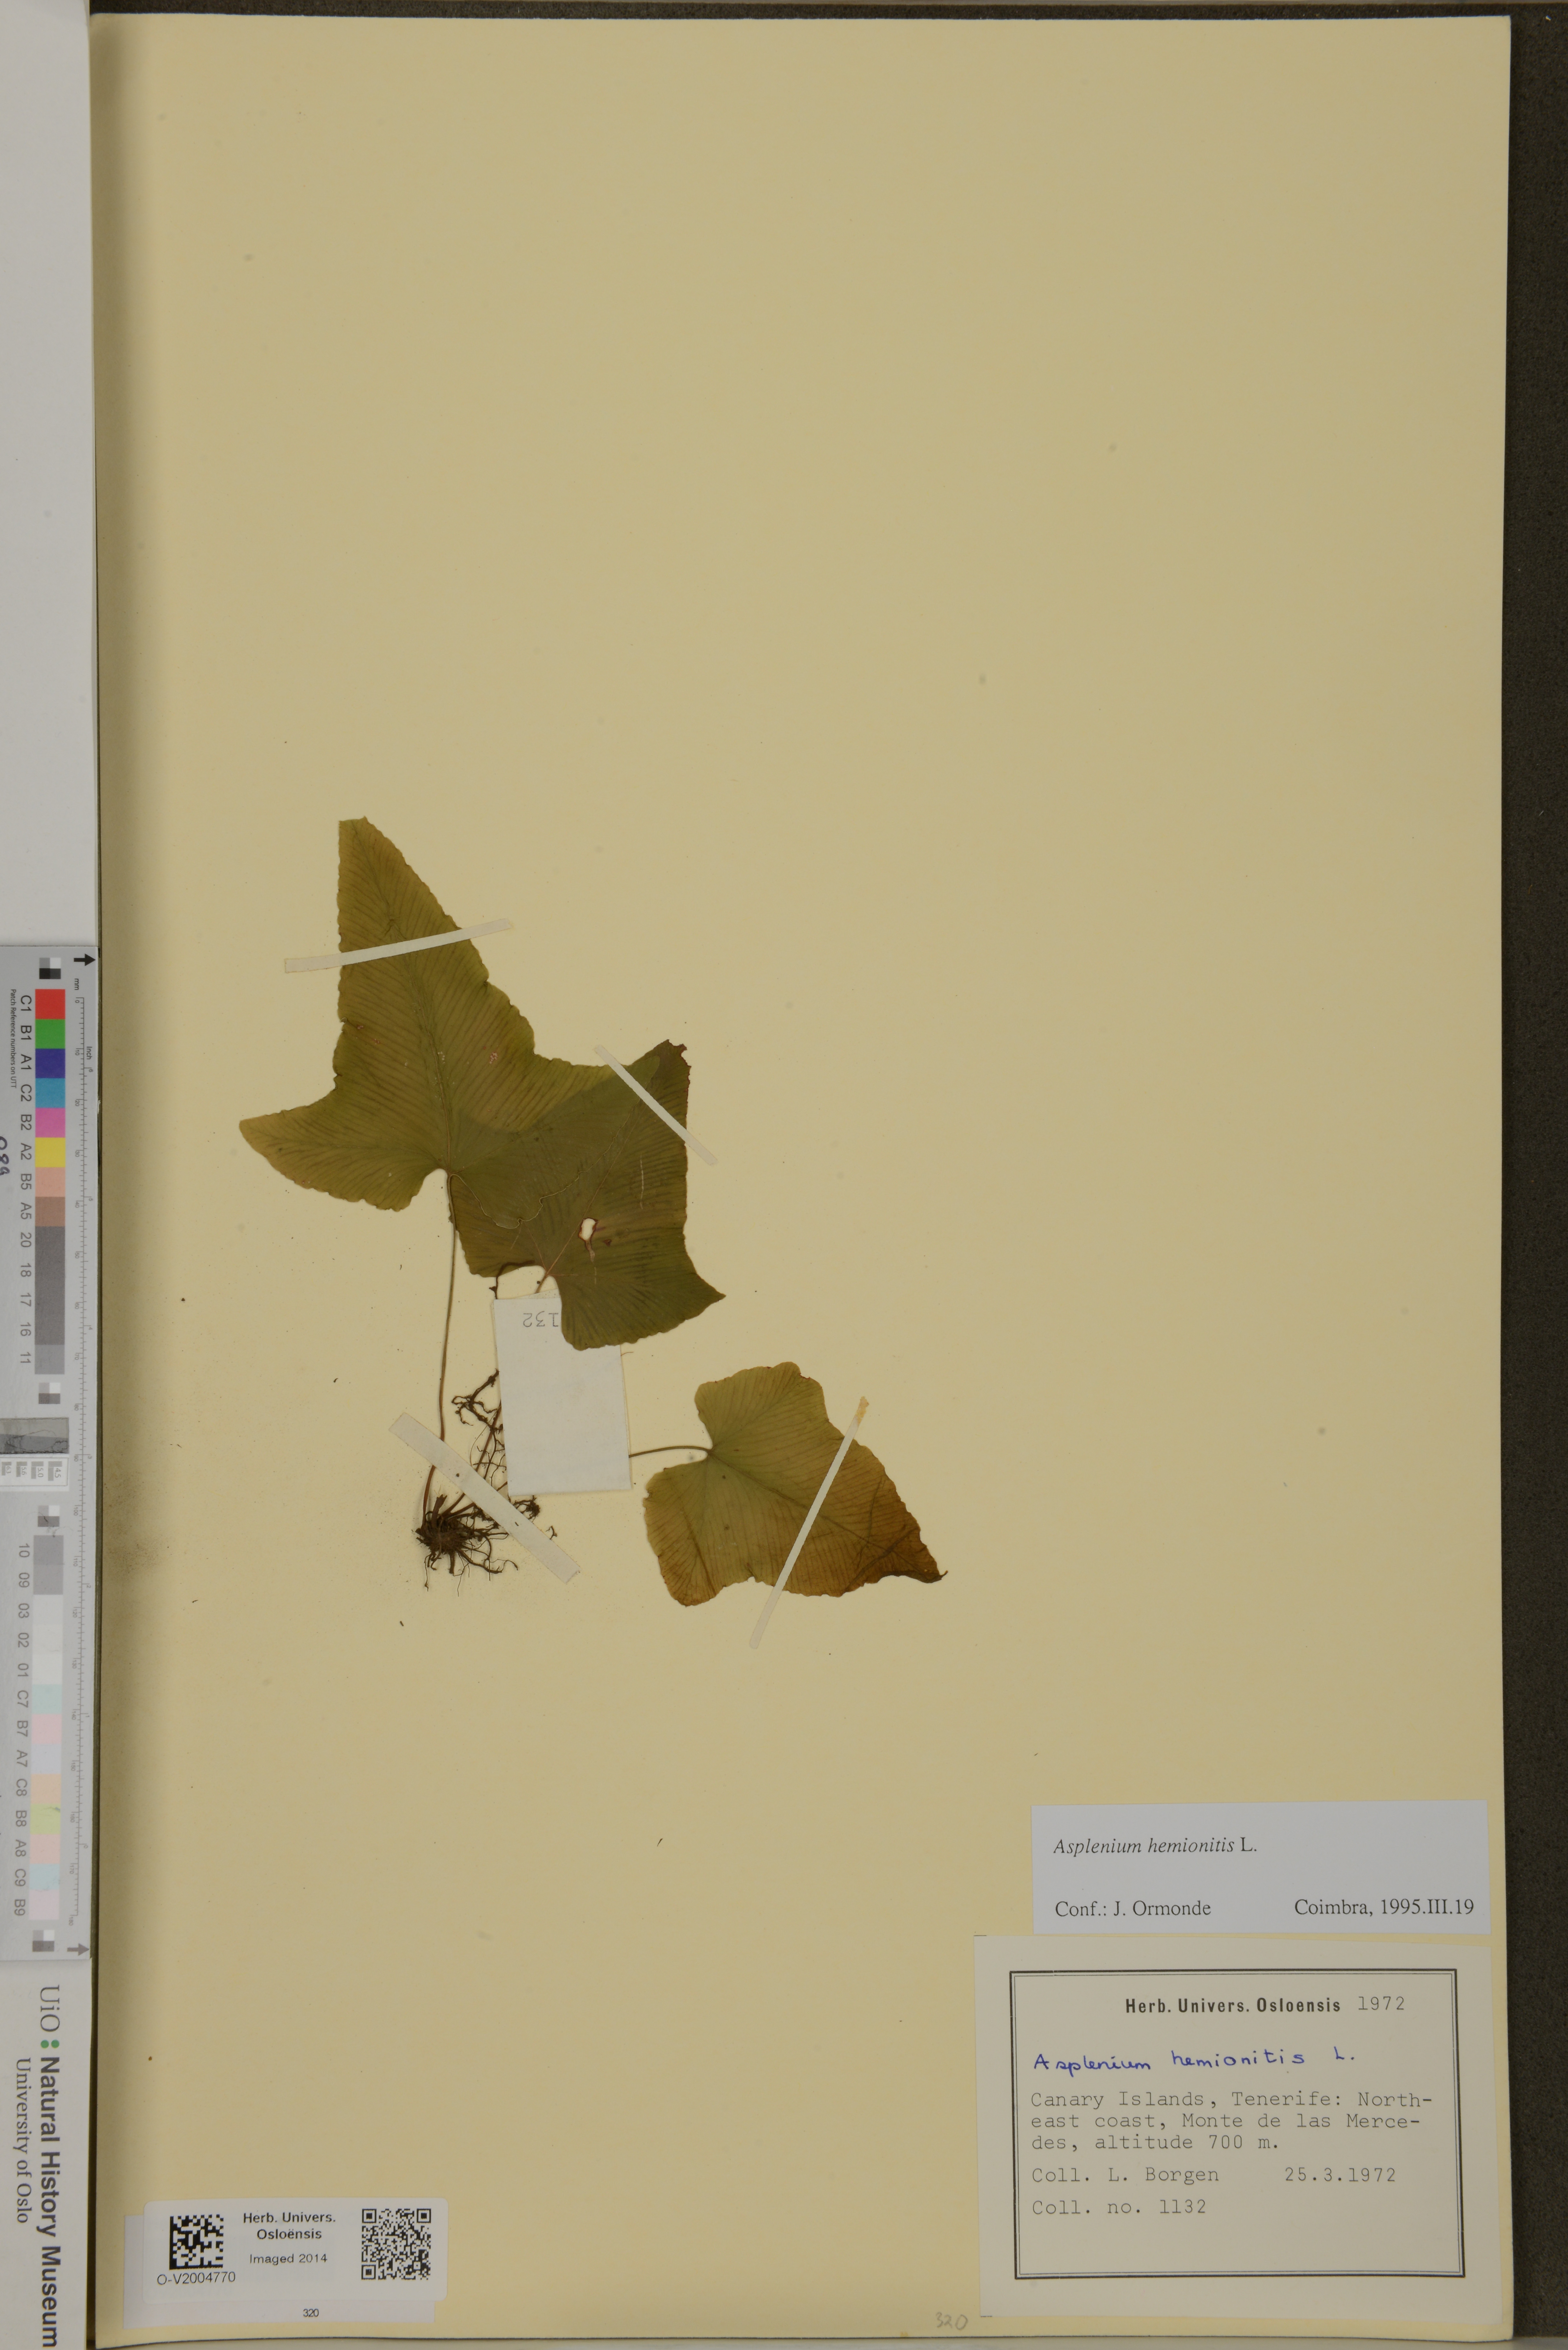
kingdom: Plantae
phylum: Tracheophyta
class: Polypodiopsida
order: Polypodiales
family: Aspleniaceae
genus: Asplenium
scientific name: Asplenium hemionitis
